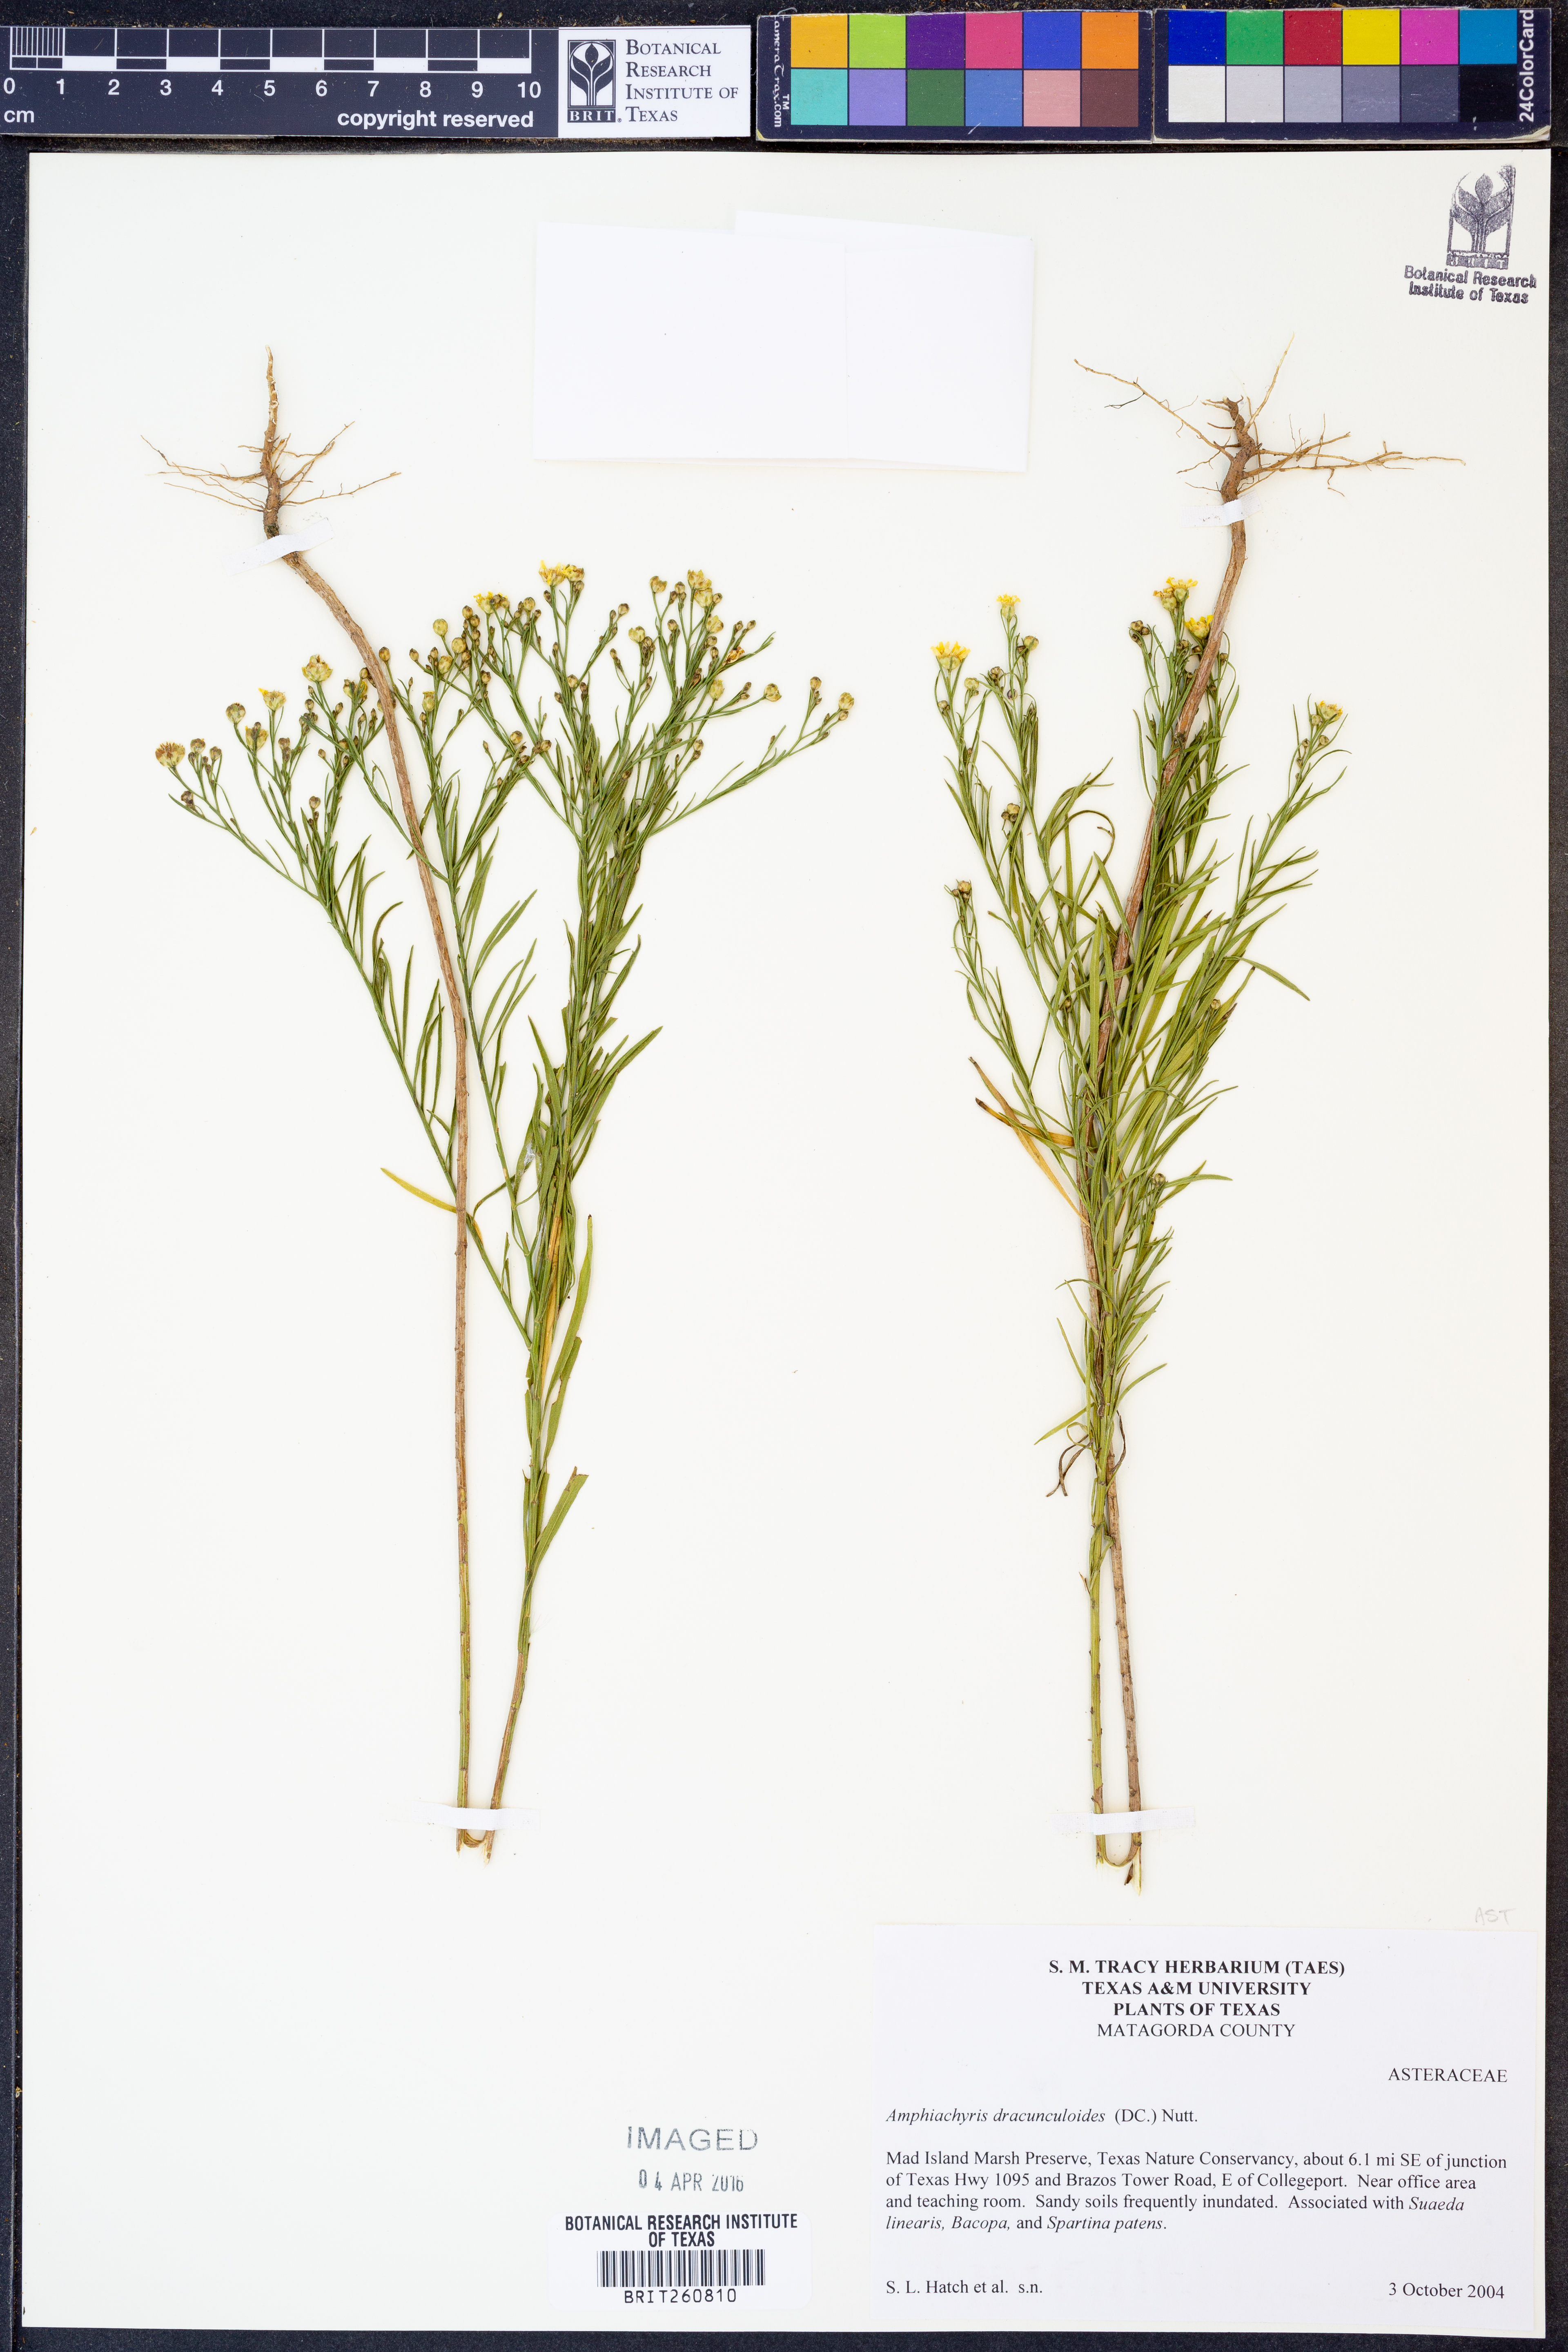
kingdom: Plantae
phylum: Tracheophyta
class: Magnoliopsida
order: Asterales
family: Asteraceae
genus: Amphiachyris
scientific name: Amphiachyris dracunculoides
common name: Broomweed
